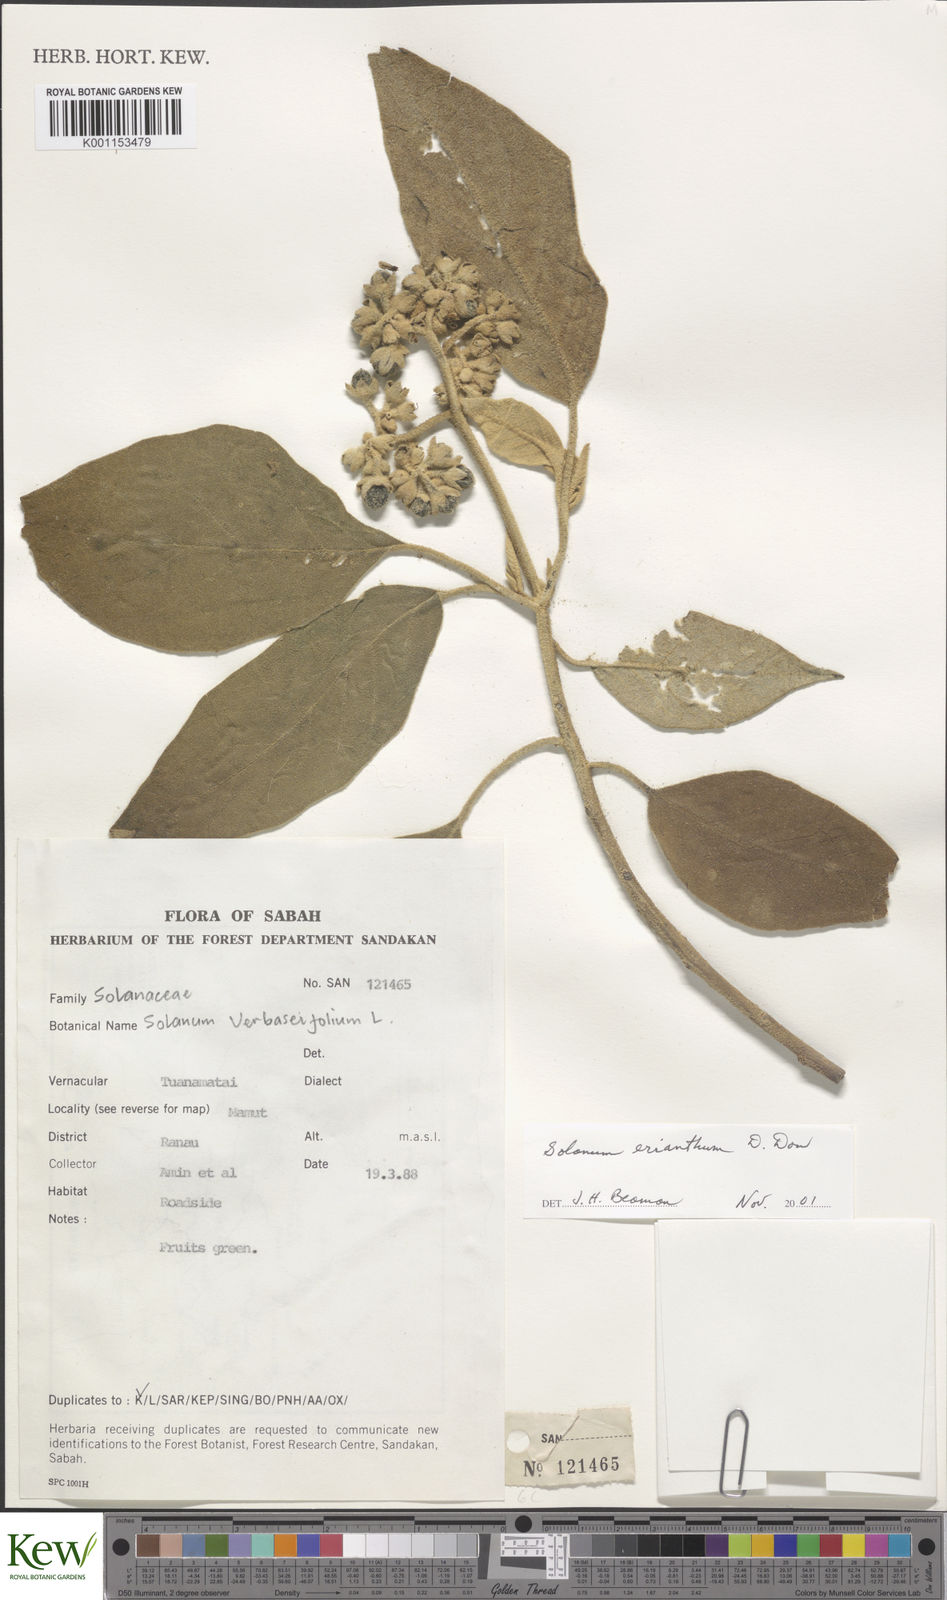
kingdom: Plantae
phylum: Tracheophyta
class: Magnoliopsida
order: Solanales
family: Solanaceae
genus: Solanum
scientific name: Solanum erianthum
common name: Tobacco-tree
